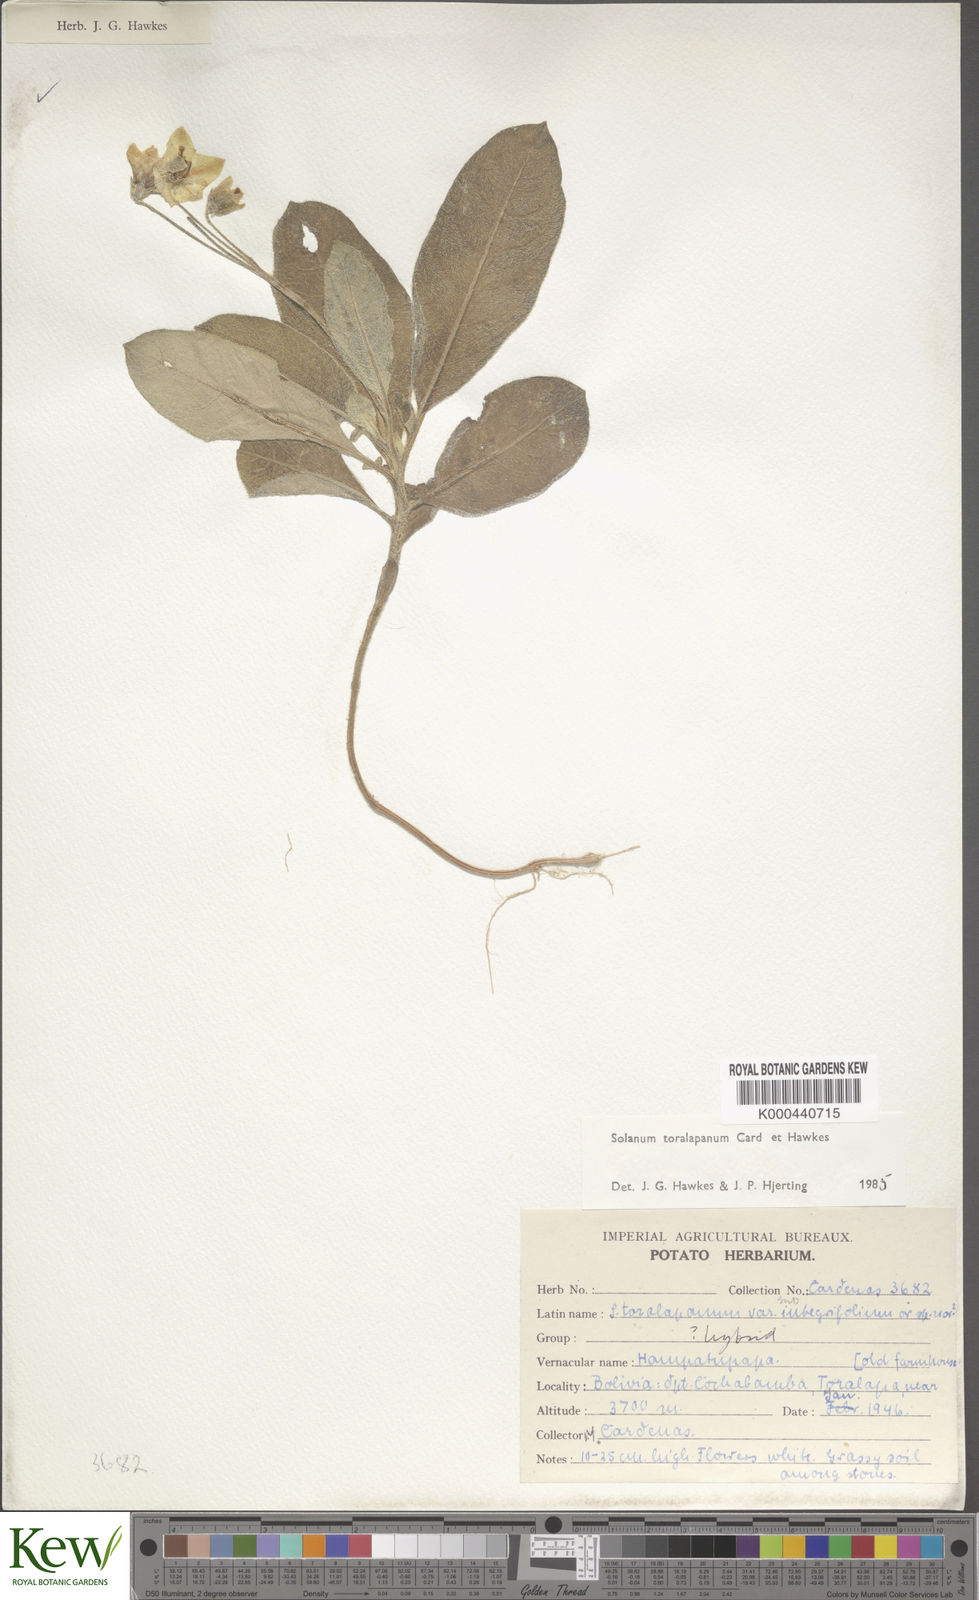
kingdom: Plantae
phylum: Tracheophyta
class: Magnoliopsida
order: Solanales
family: Solanaceae
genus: Solanum
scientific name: Solanum boliviense
